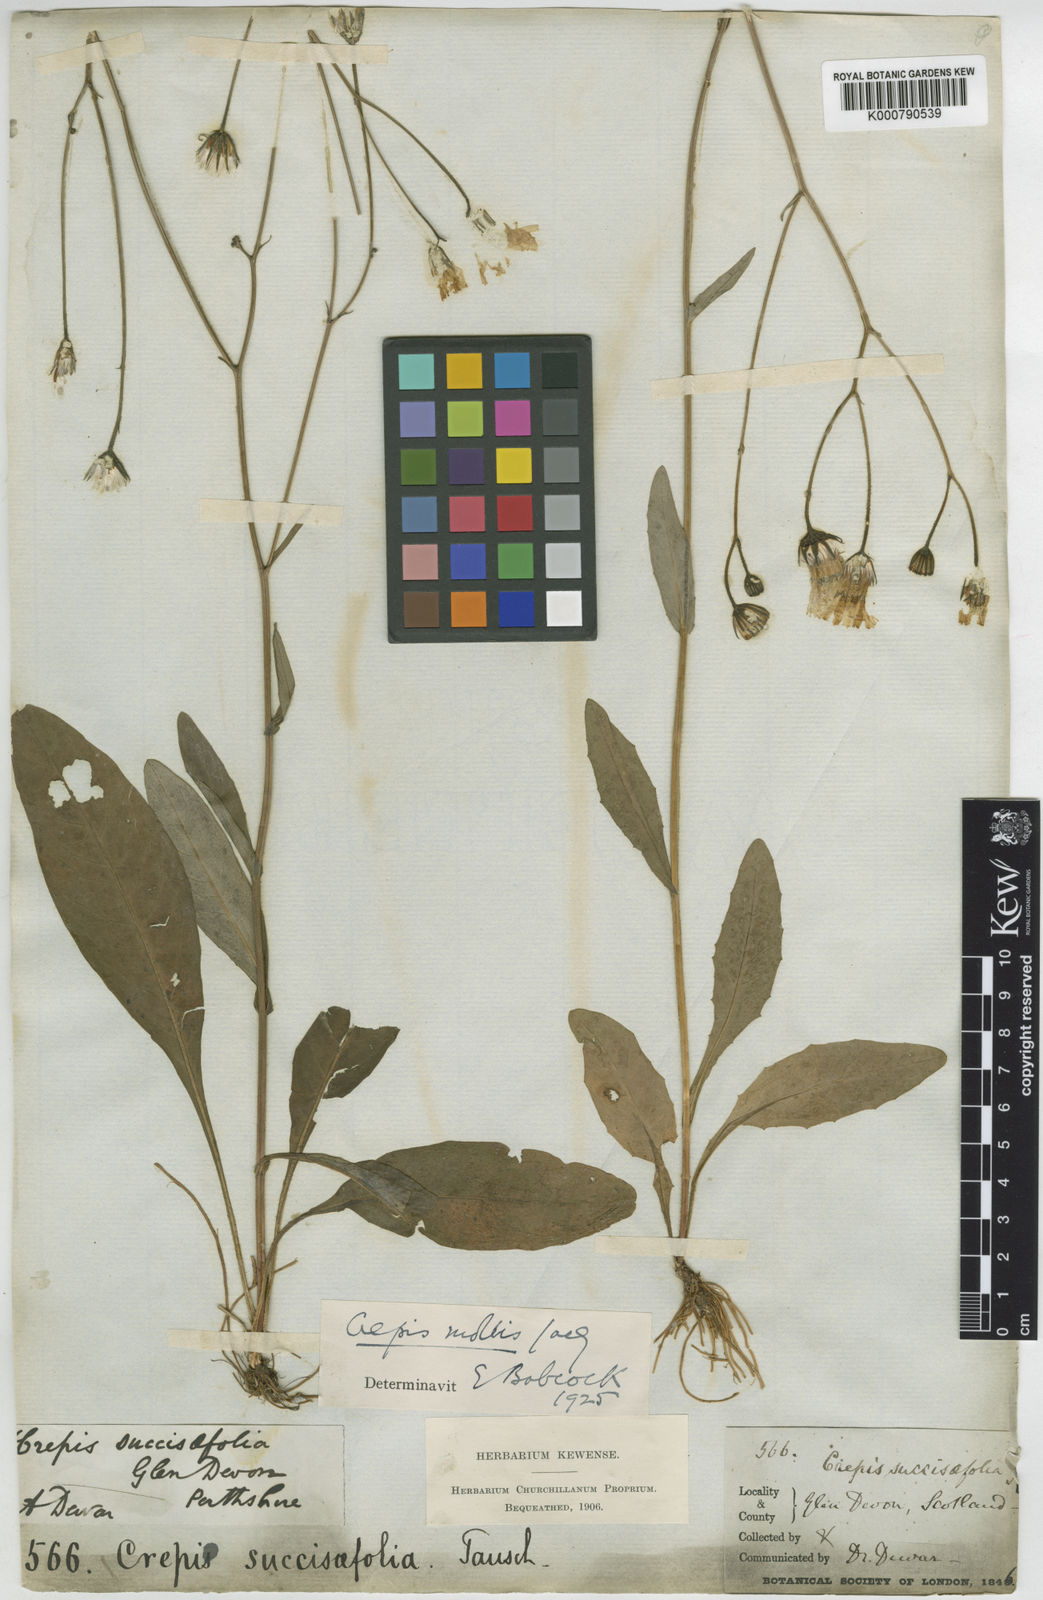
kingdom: Plantae
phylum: Tracheophyta
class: Magnoliopsida
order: Asterales
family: Asteraceae
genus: Crepis
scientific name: Crepis mollis
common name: Northern hawk's-beard
